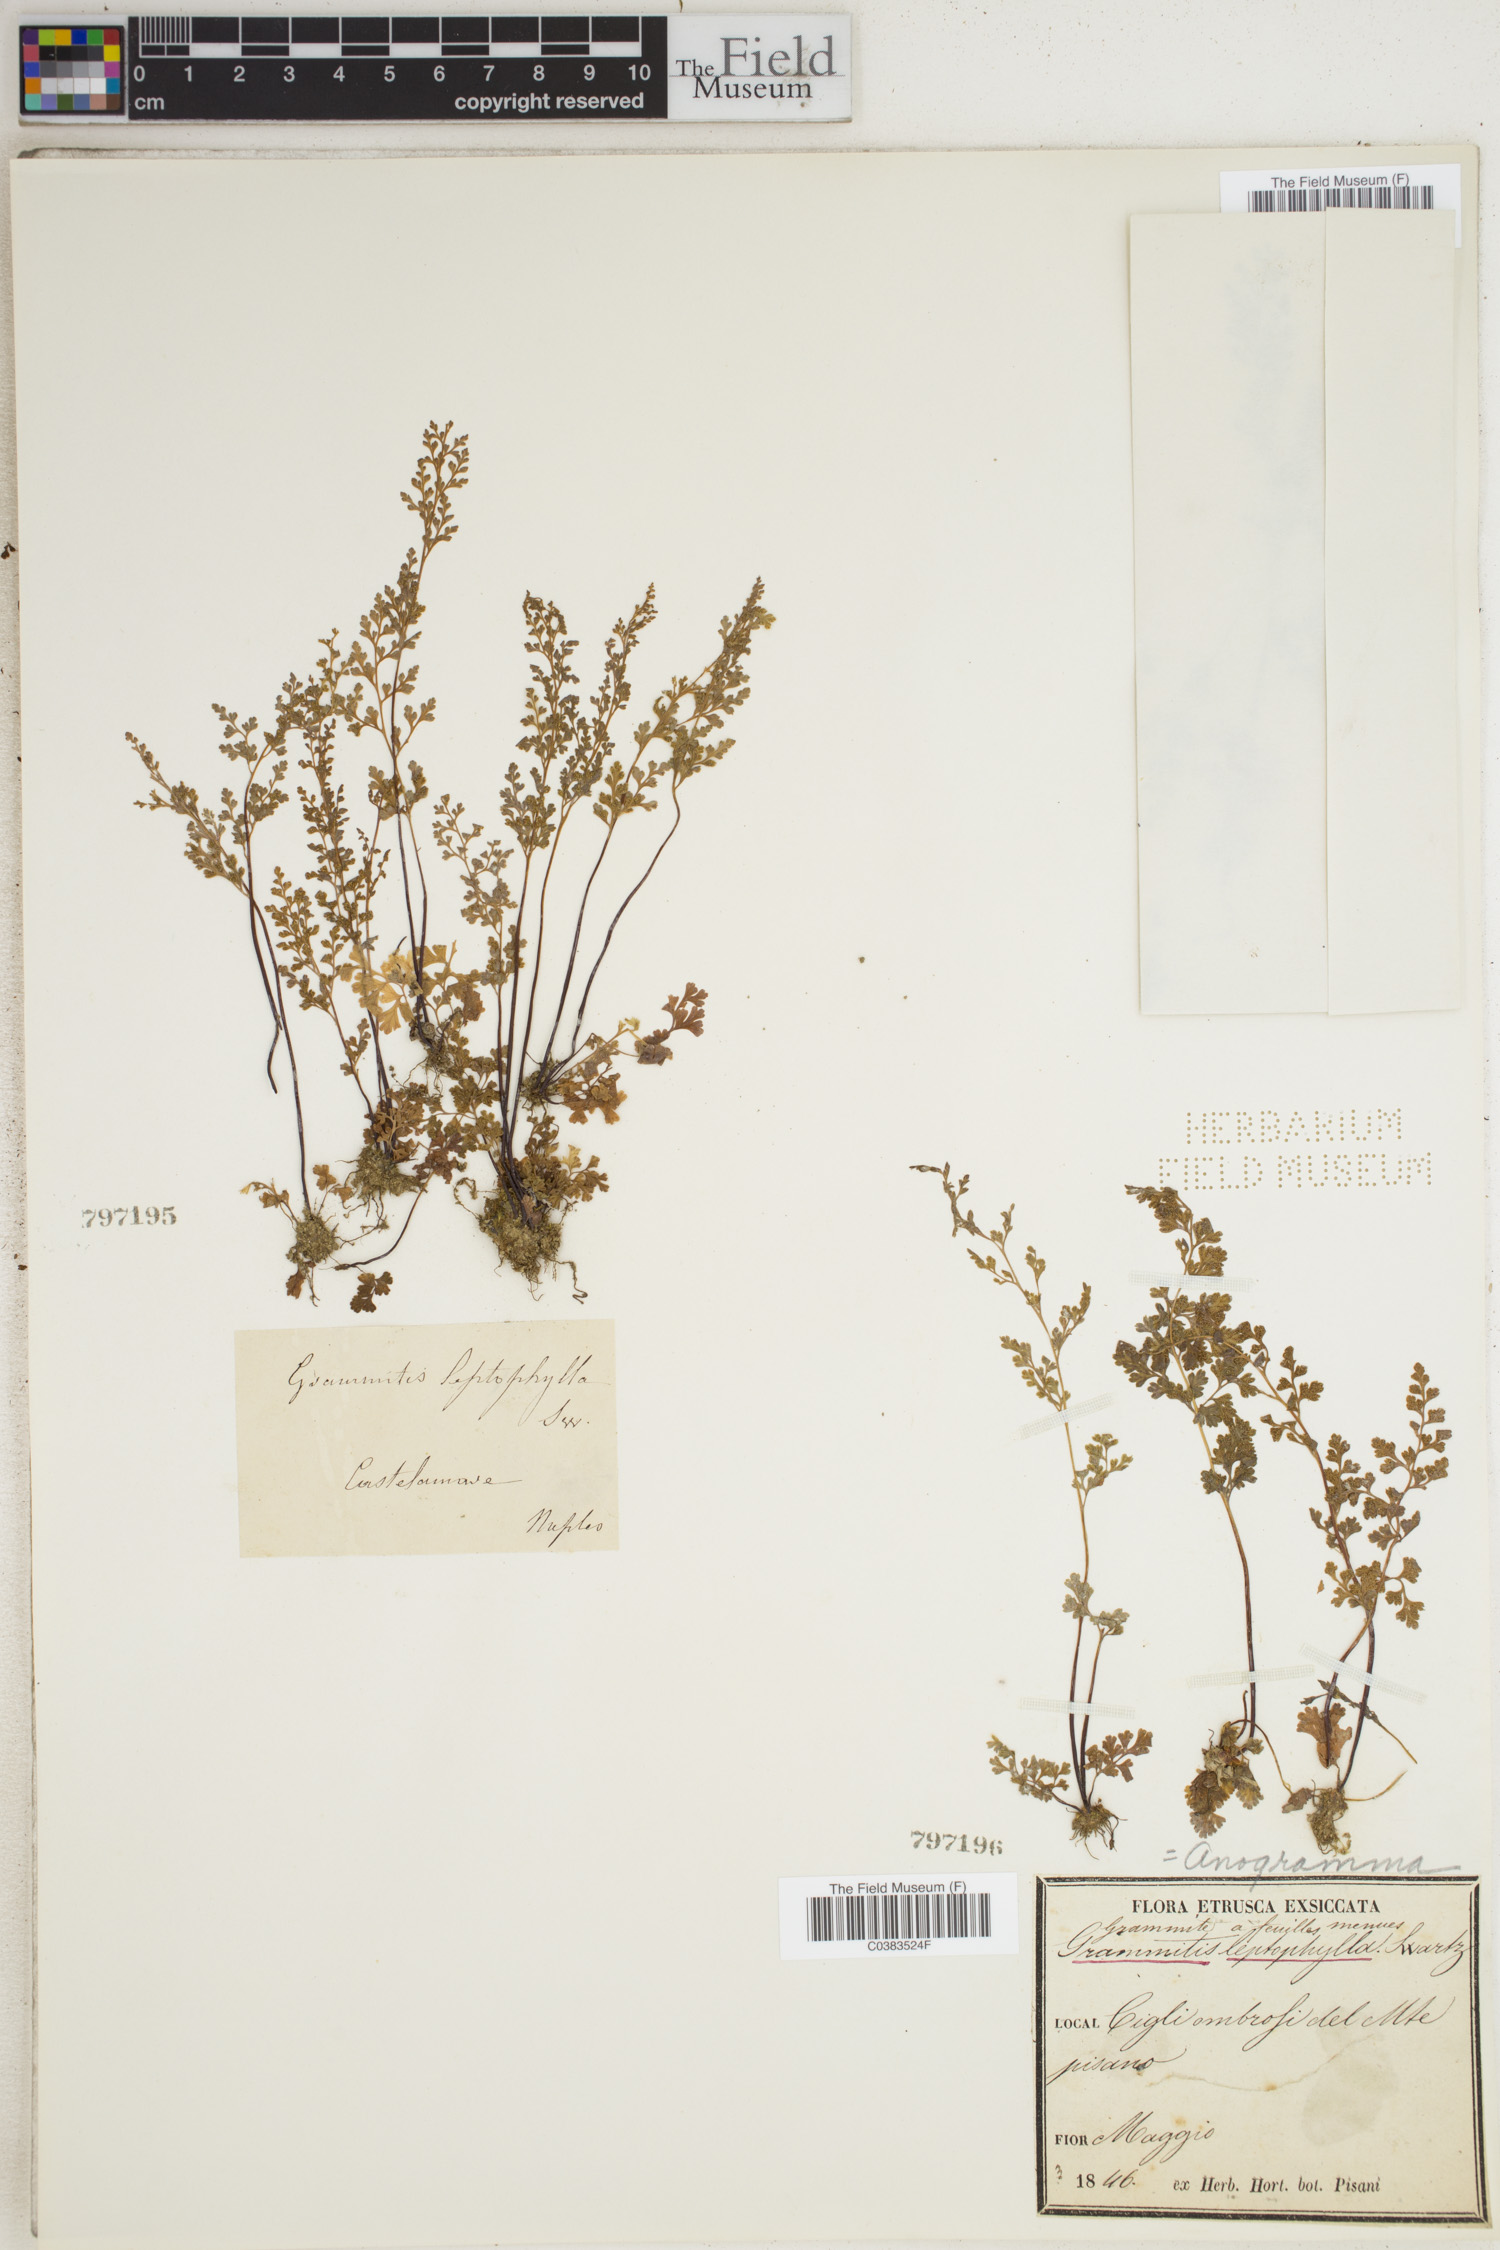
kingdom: Plantae
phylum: Tracheophyta
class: Polypodiopsida
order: Polypodiales
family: Pteridaceae
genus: Anogramma
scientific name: Anogramma leptophylla
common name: Jersey fern
